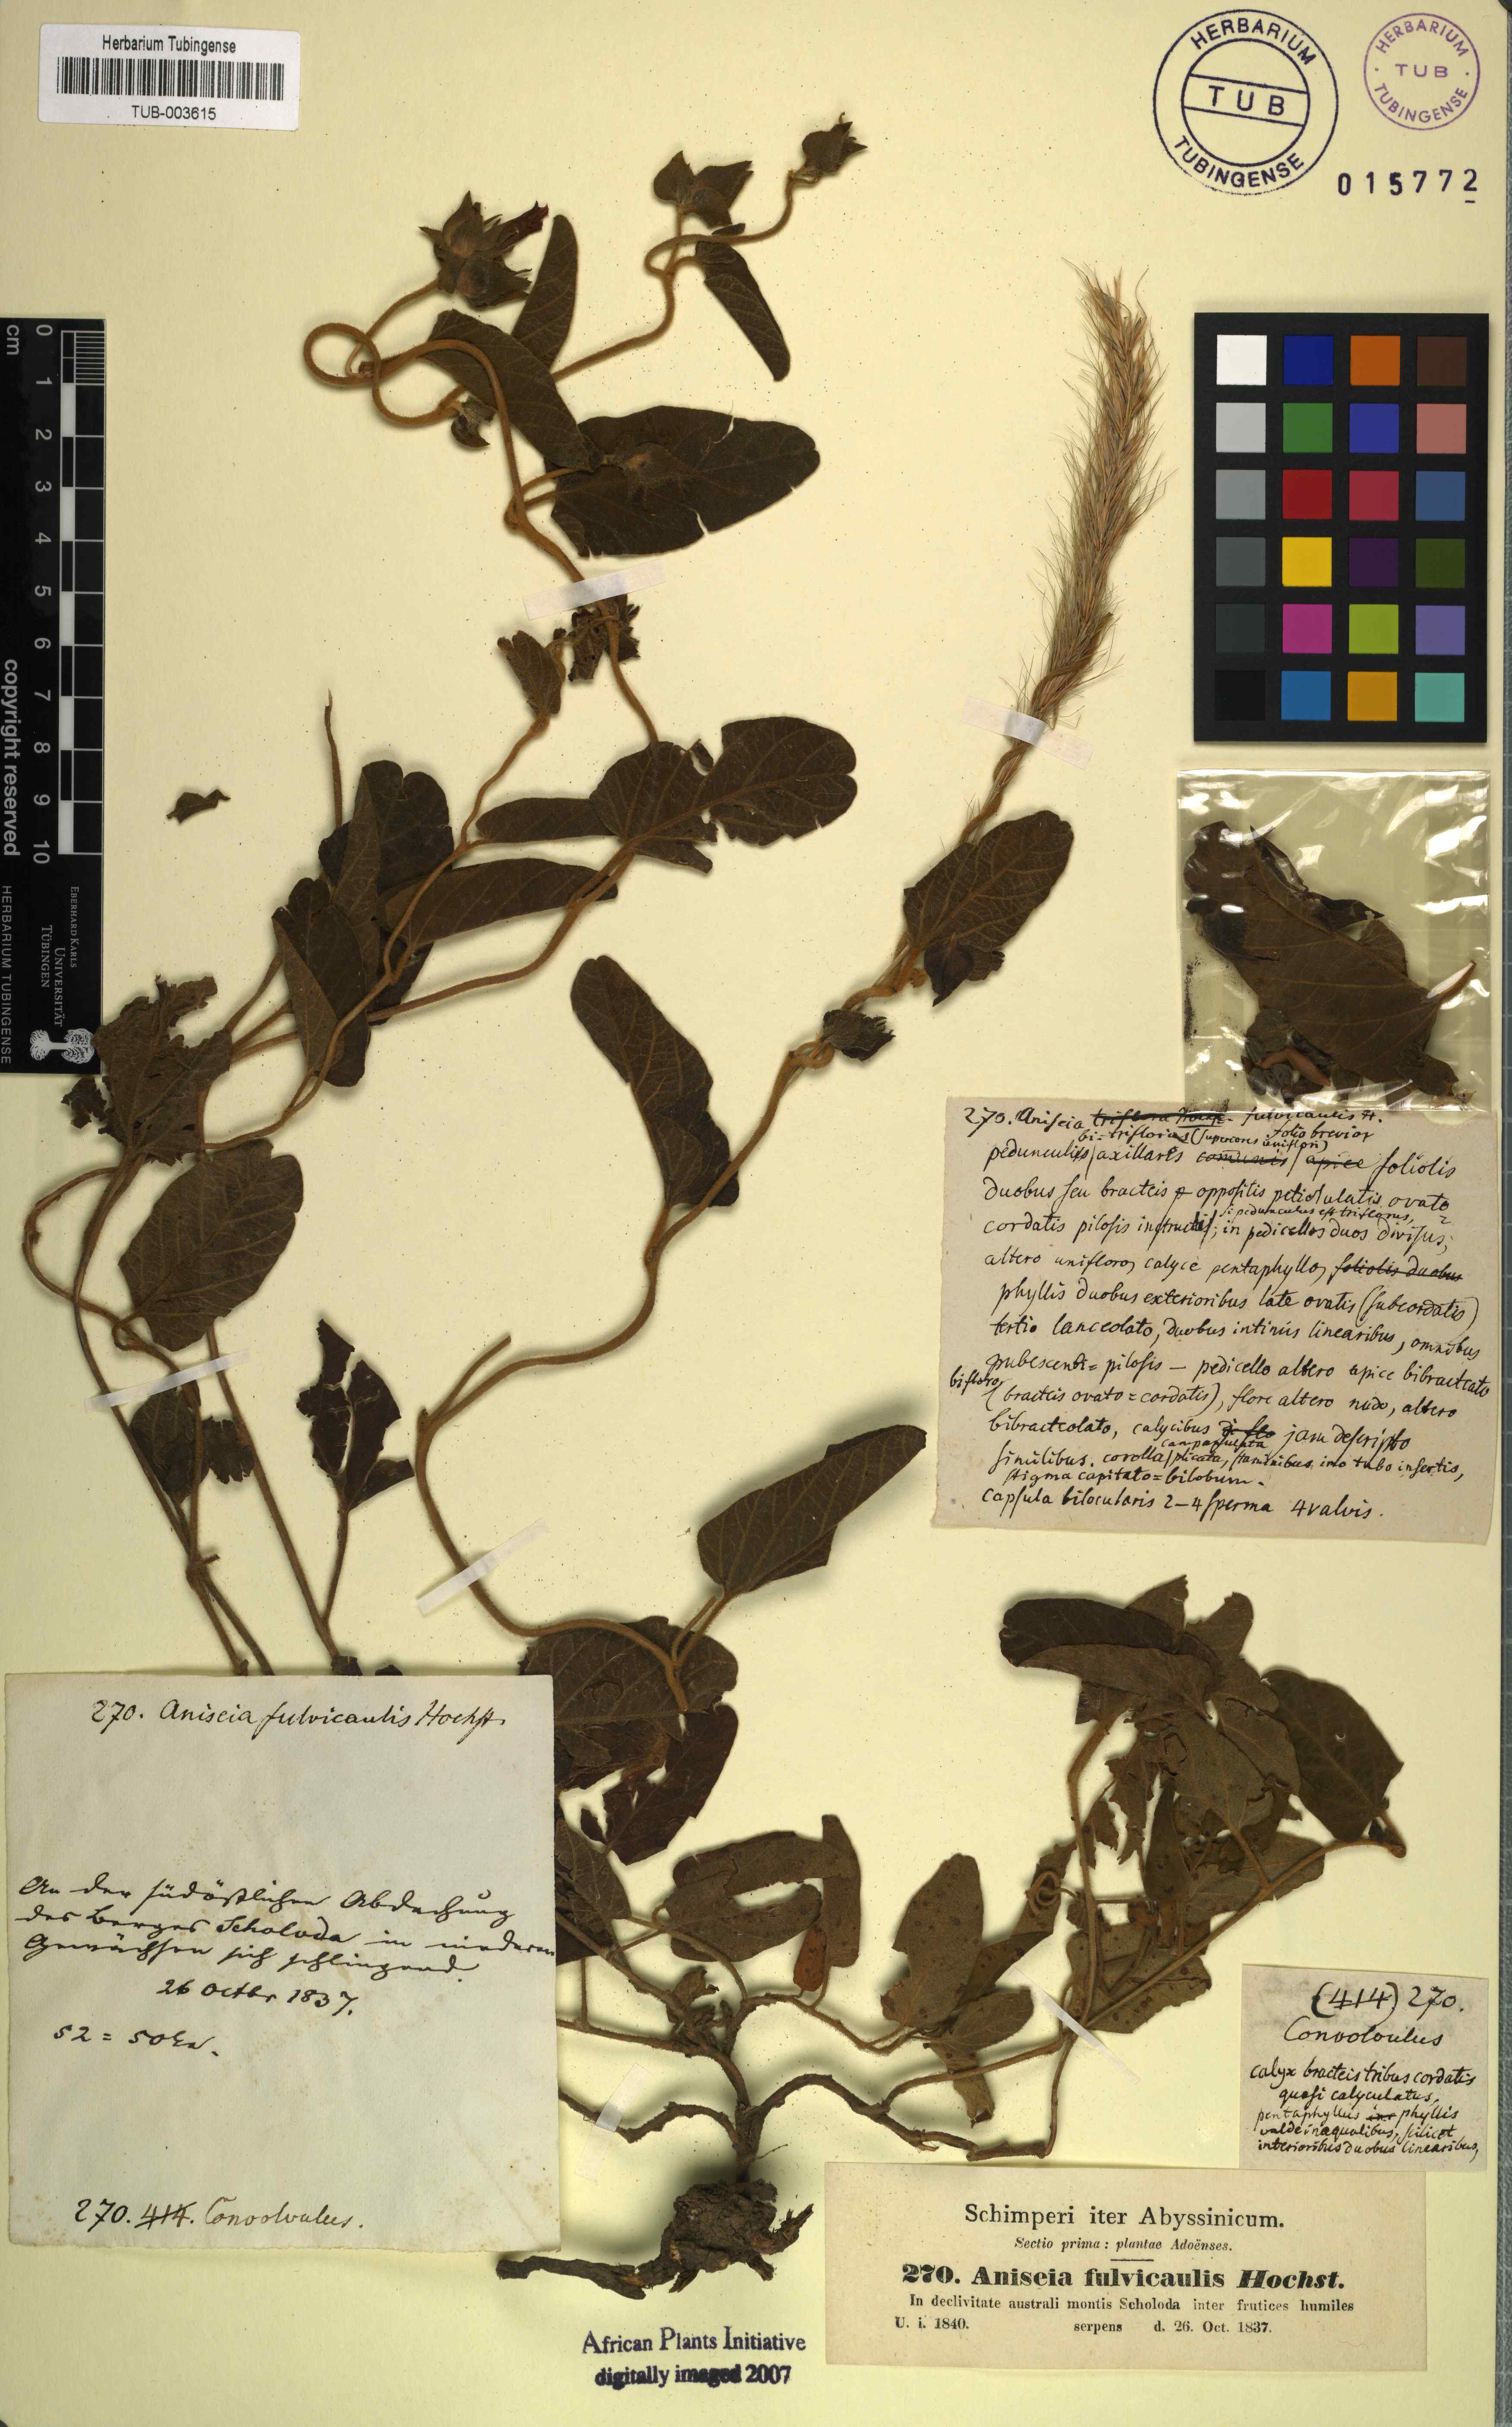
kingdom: Plantae
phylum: Tracheophyta
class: Magnoliopsida
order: Solanales
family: Convolvulaceae
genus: Ipomoea
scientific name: Ipomoea fulvicaulis
